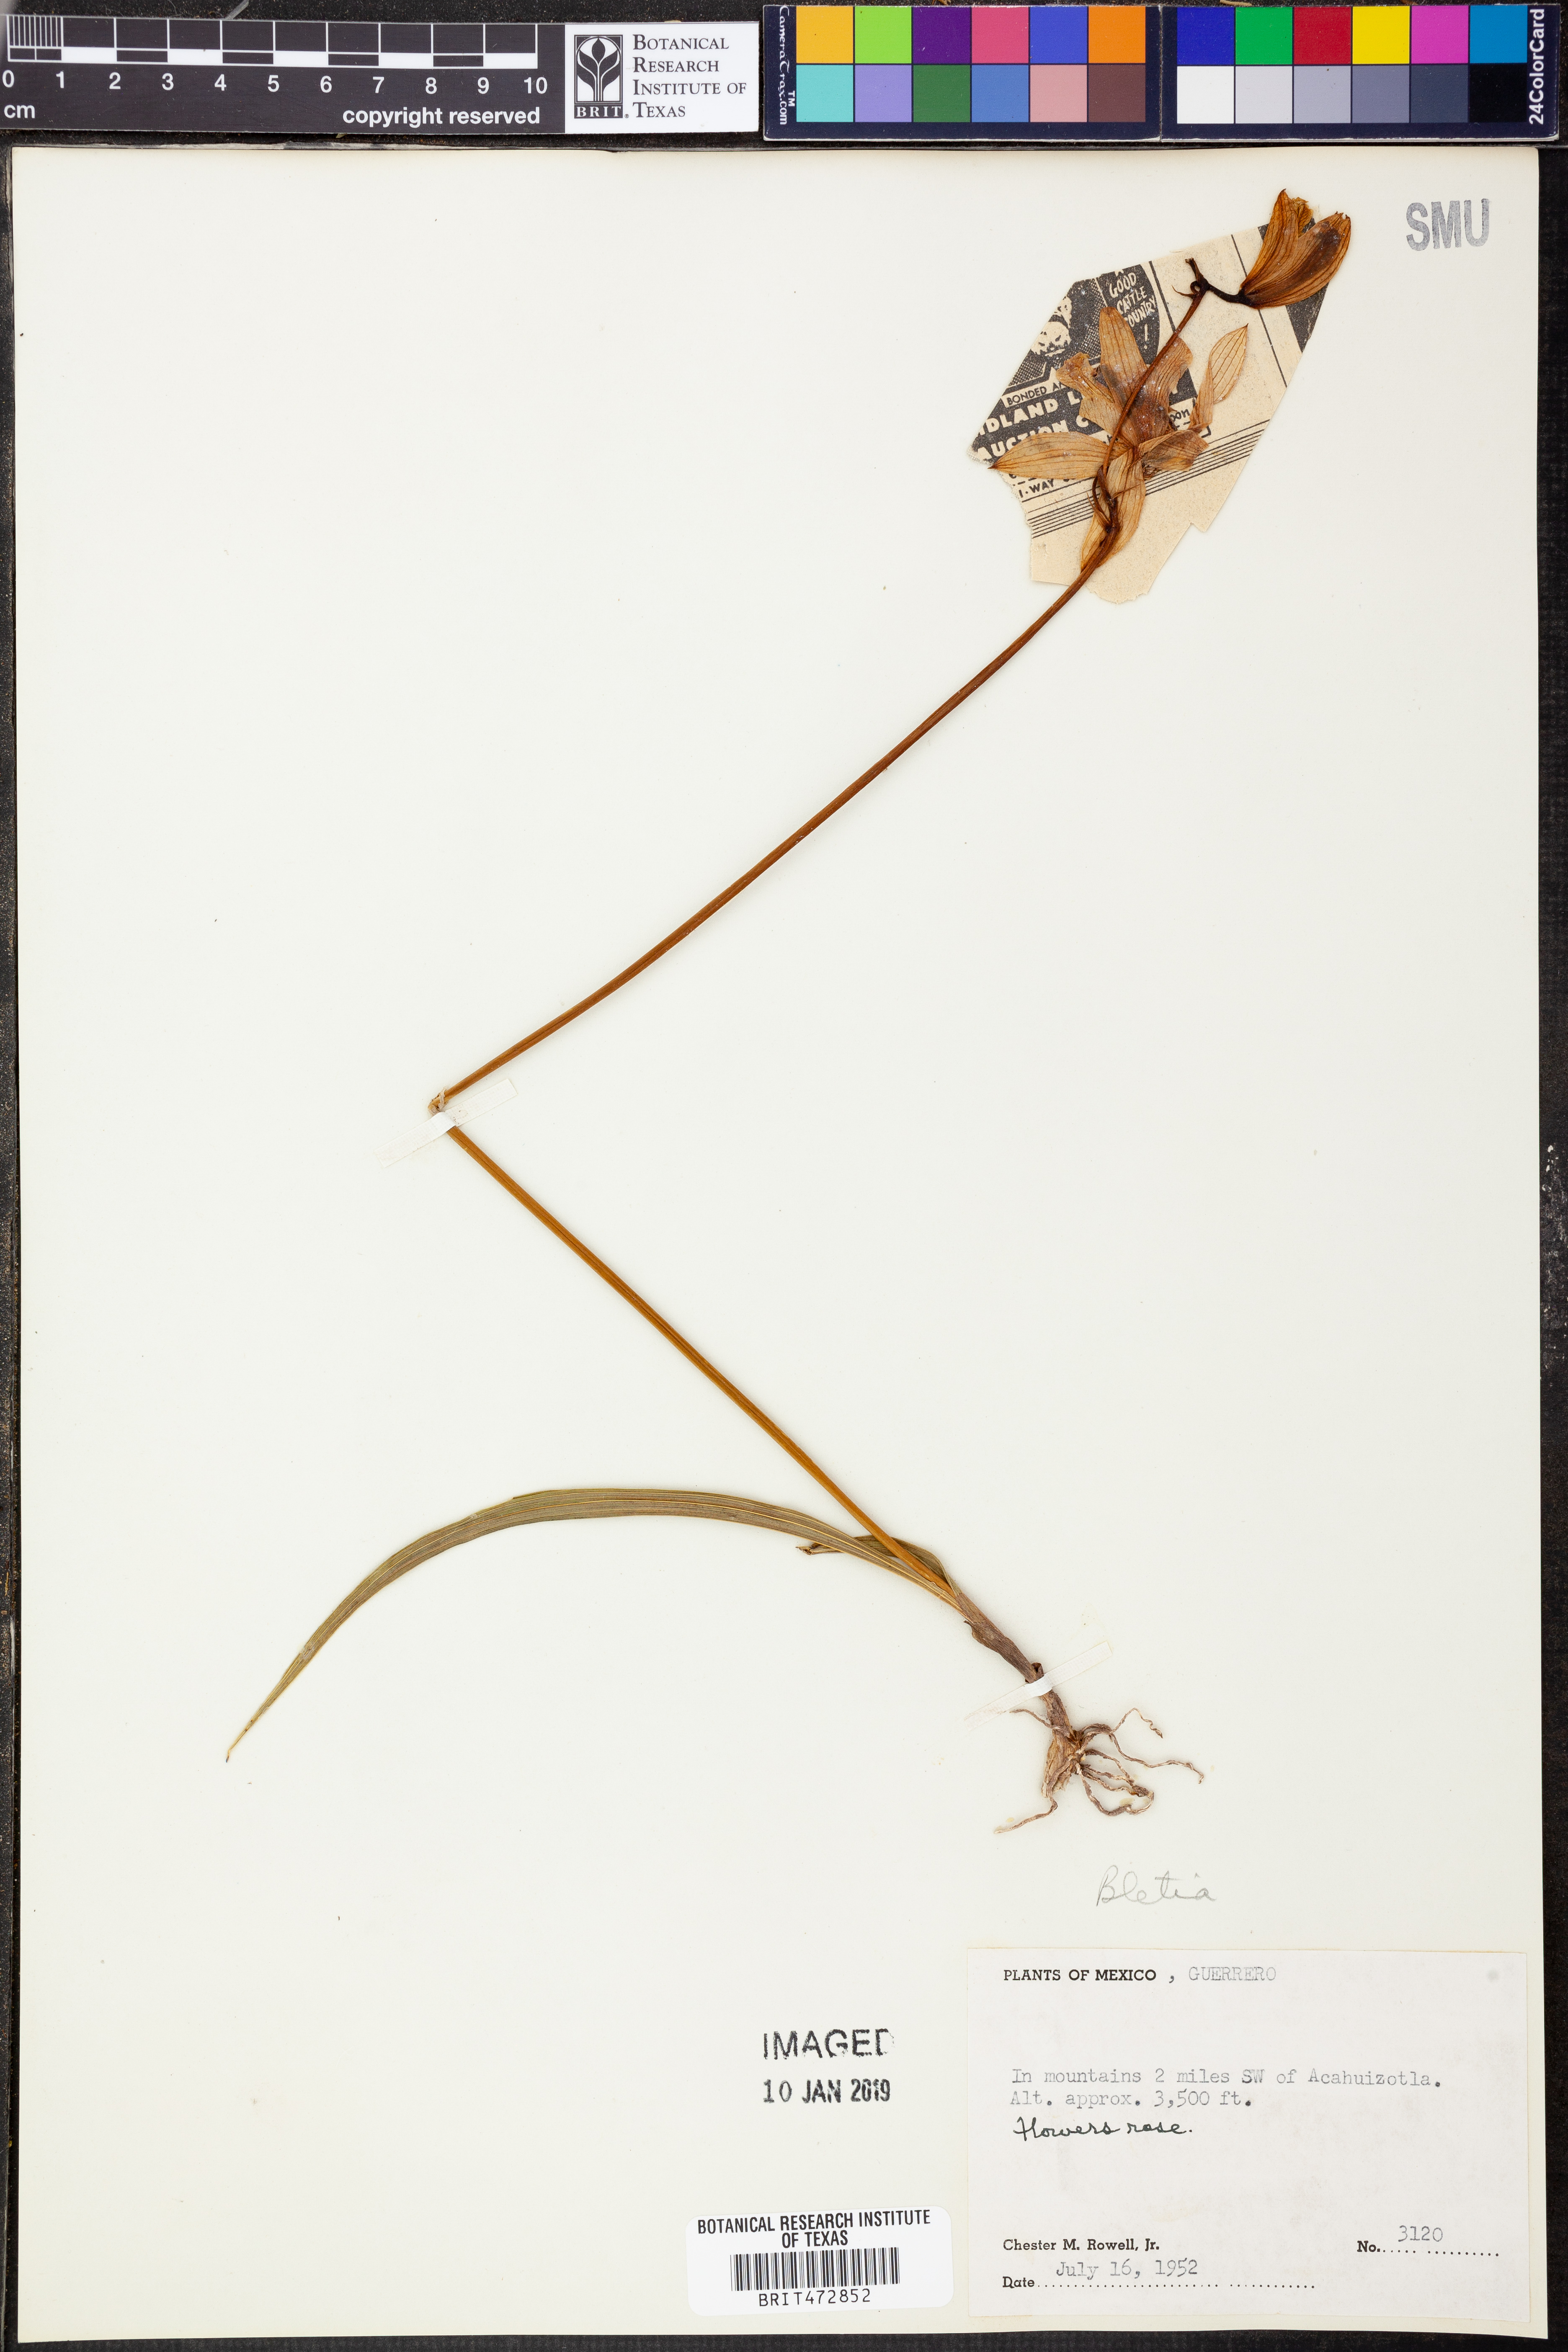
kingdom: Plantae
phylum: Tracheophyta
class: Liliopsida
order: Asparagales
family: Orchidaceae
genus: Bletia
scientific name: Bletia
